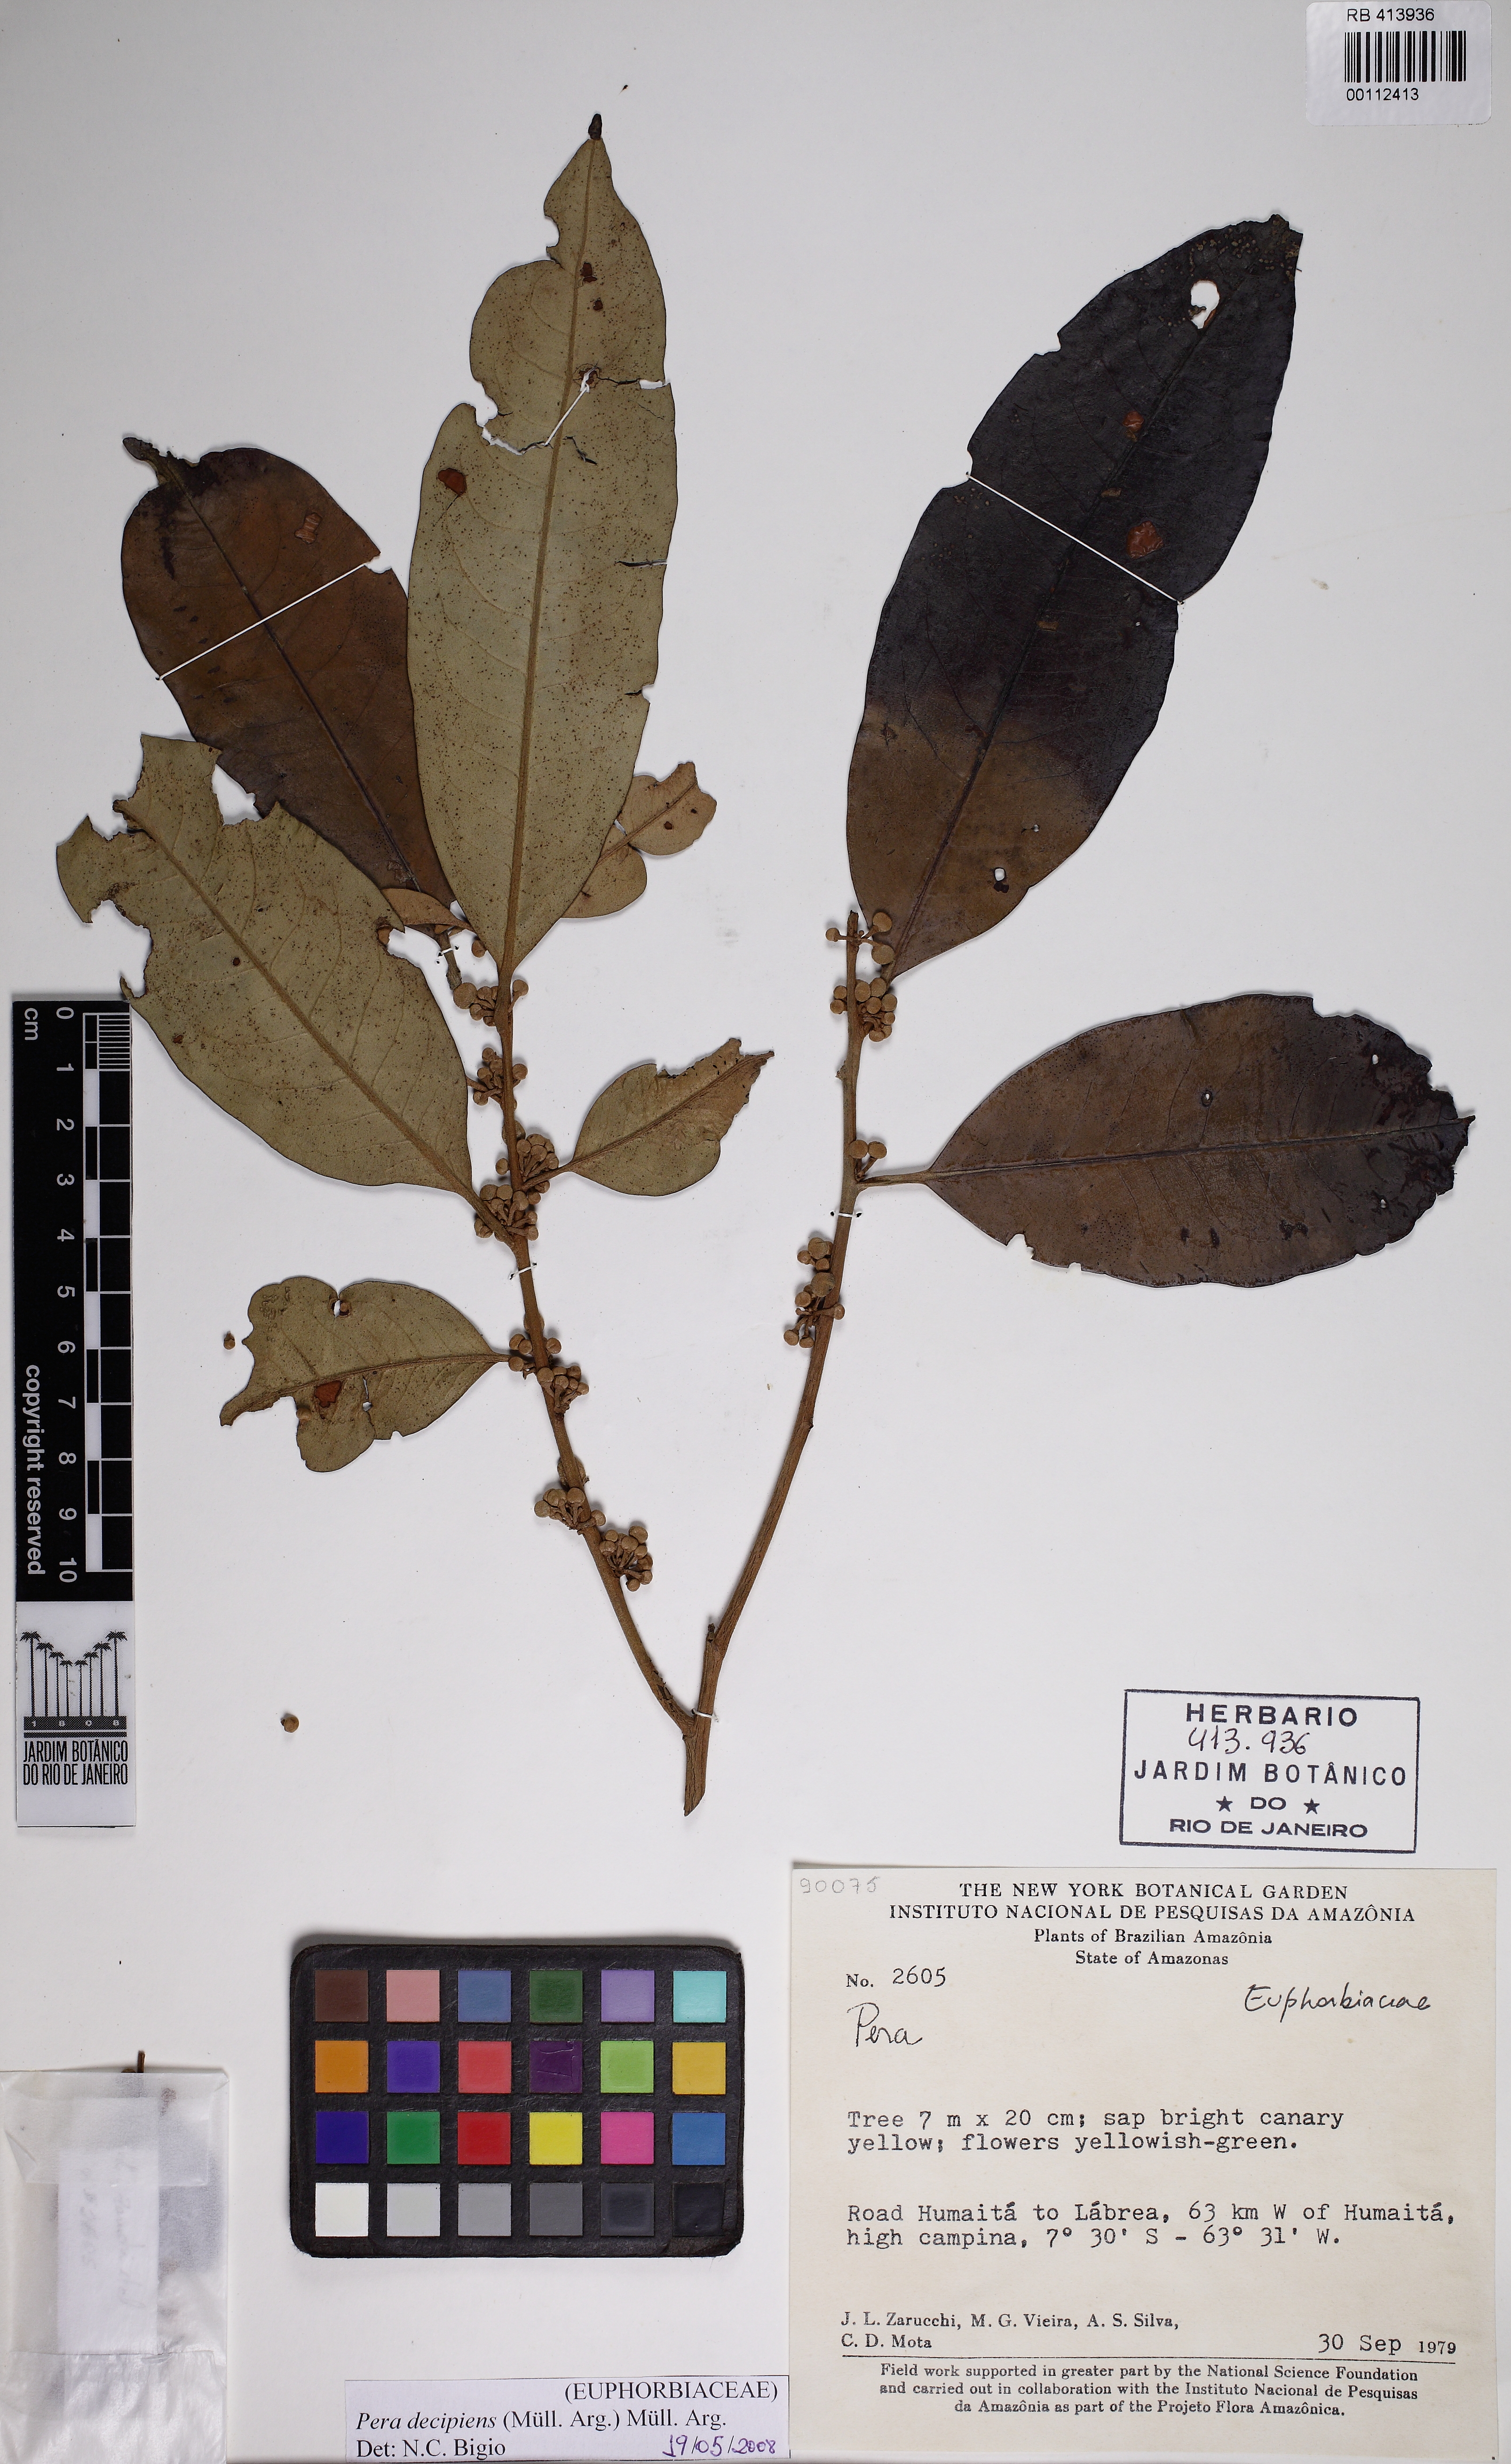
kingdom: Plantae
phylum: Tracheophyta
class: Magnoliopsida
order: Malpighiales
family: Peraceae
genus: Pera
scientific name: Pera decipiens
